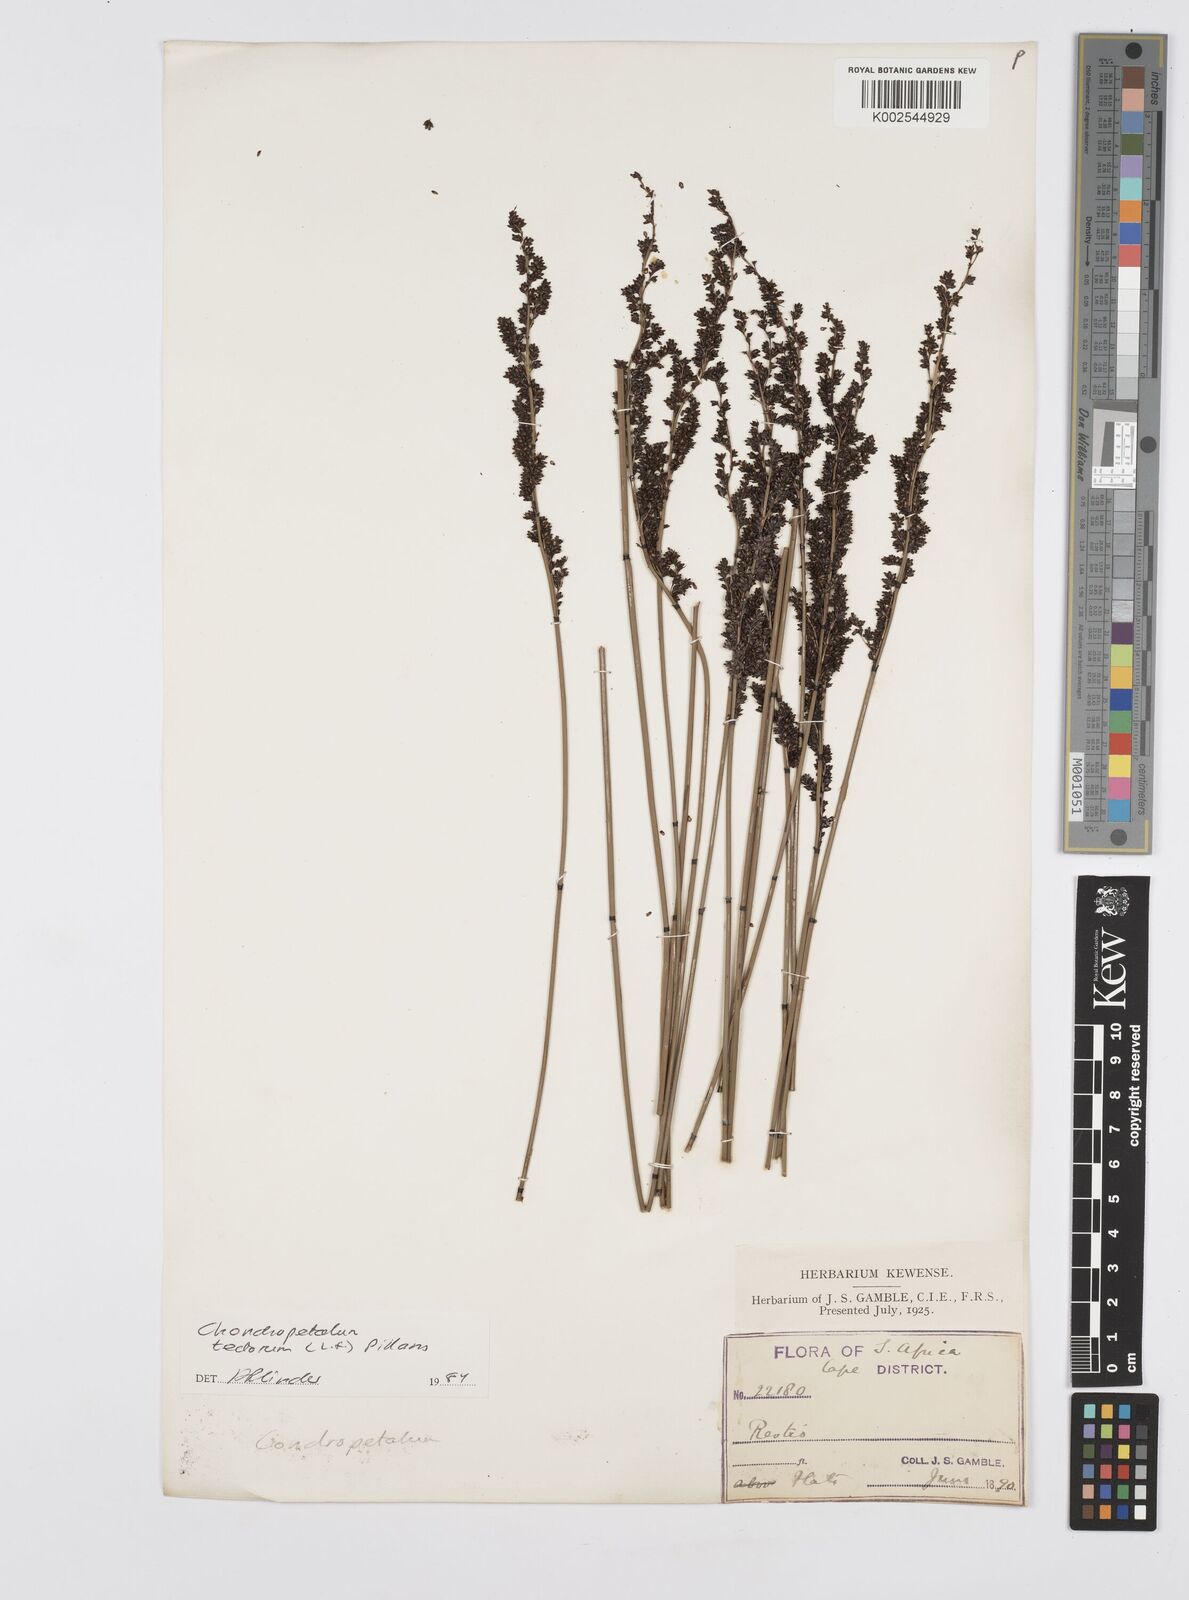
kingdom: Plantae
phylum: Tracheophyta
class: Liliopsida
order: Poales
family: Restionaceae
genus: Elegia
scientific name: Elegia tectorum
